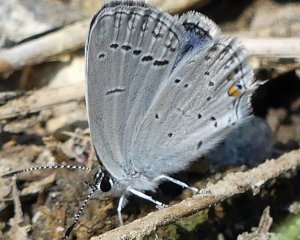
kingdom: Animalia
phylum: Arthropoda
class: Insecta
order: Lepidoptera
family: Lycaenidae
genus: Elkalyce
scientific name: Elkalyce comyntas
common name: Eastern Tailed-Blue
